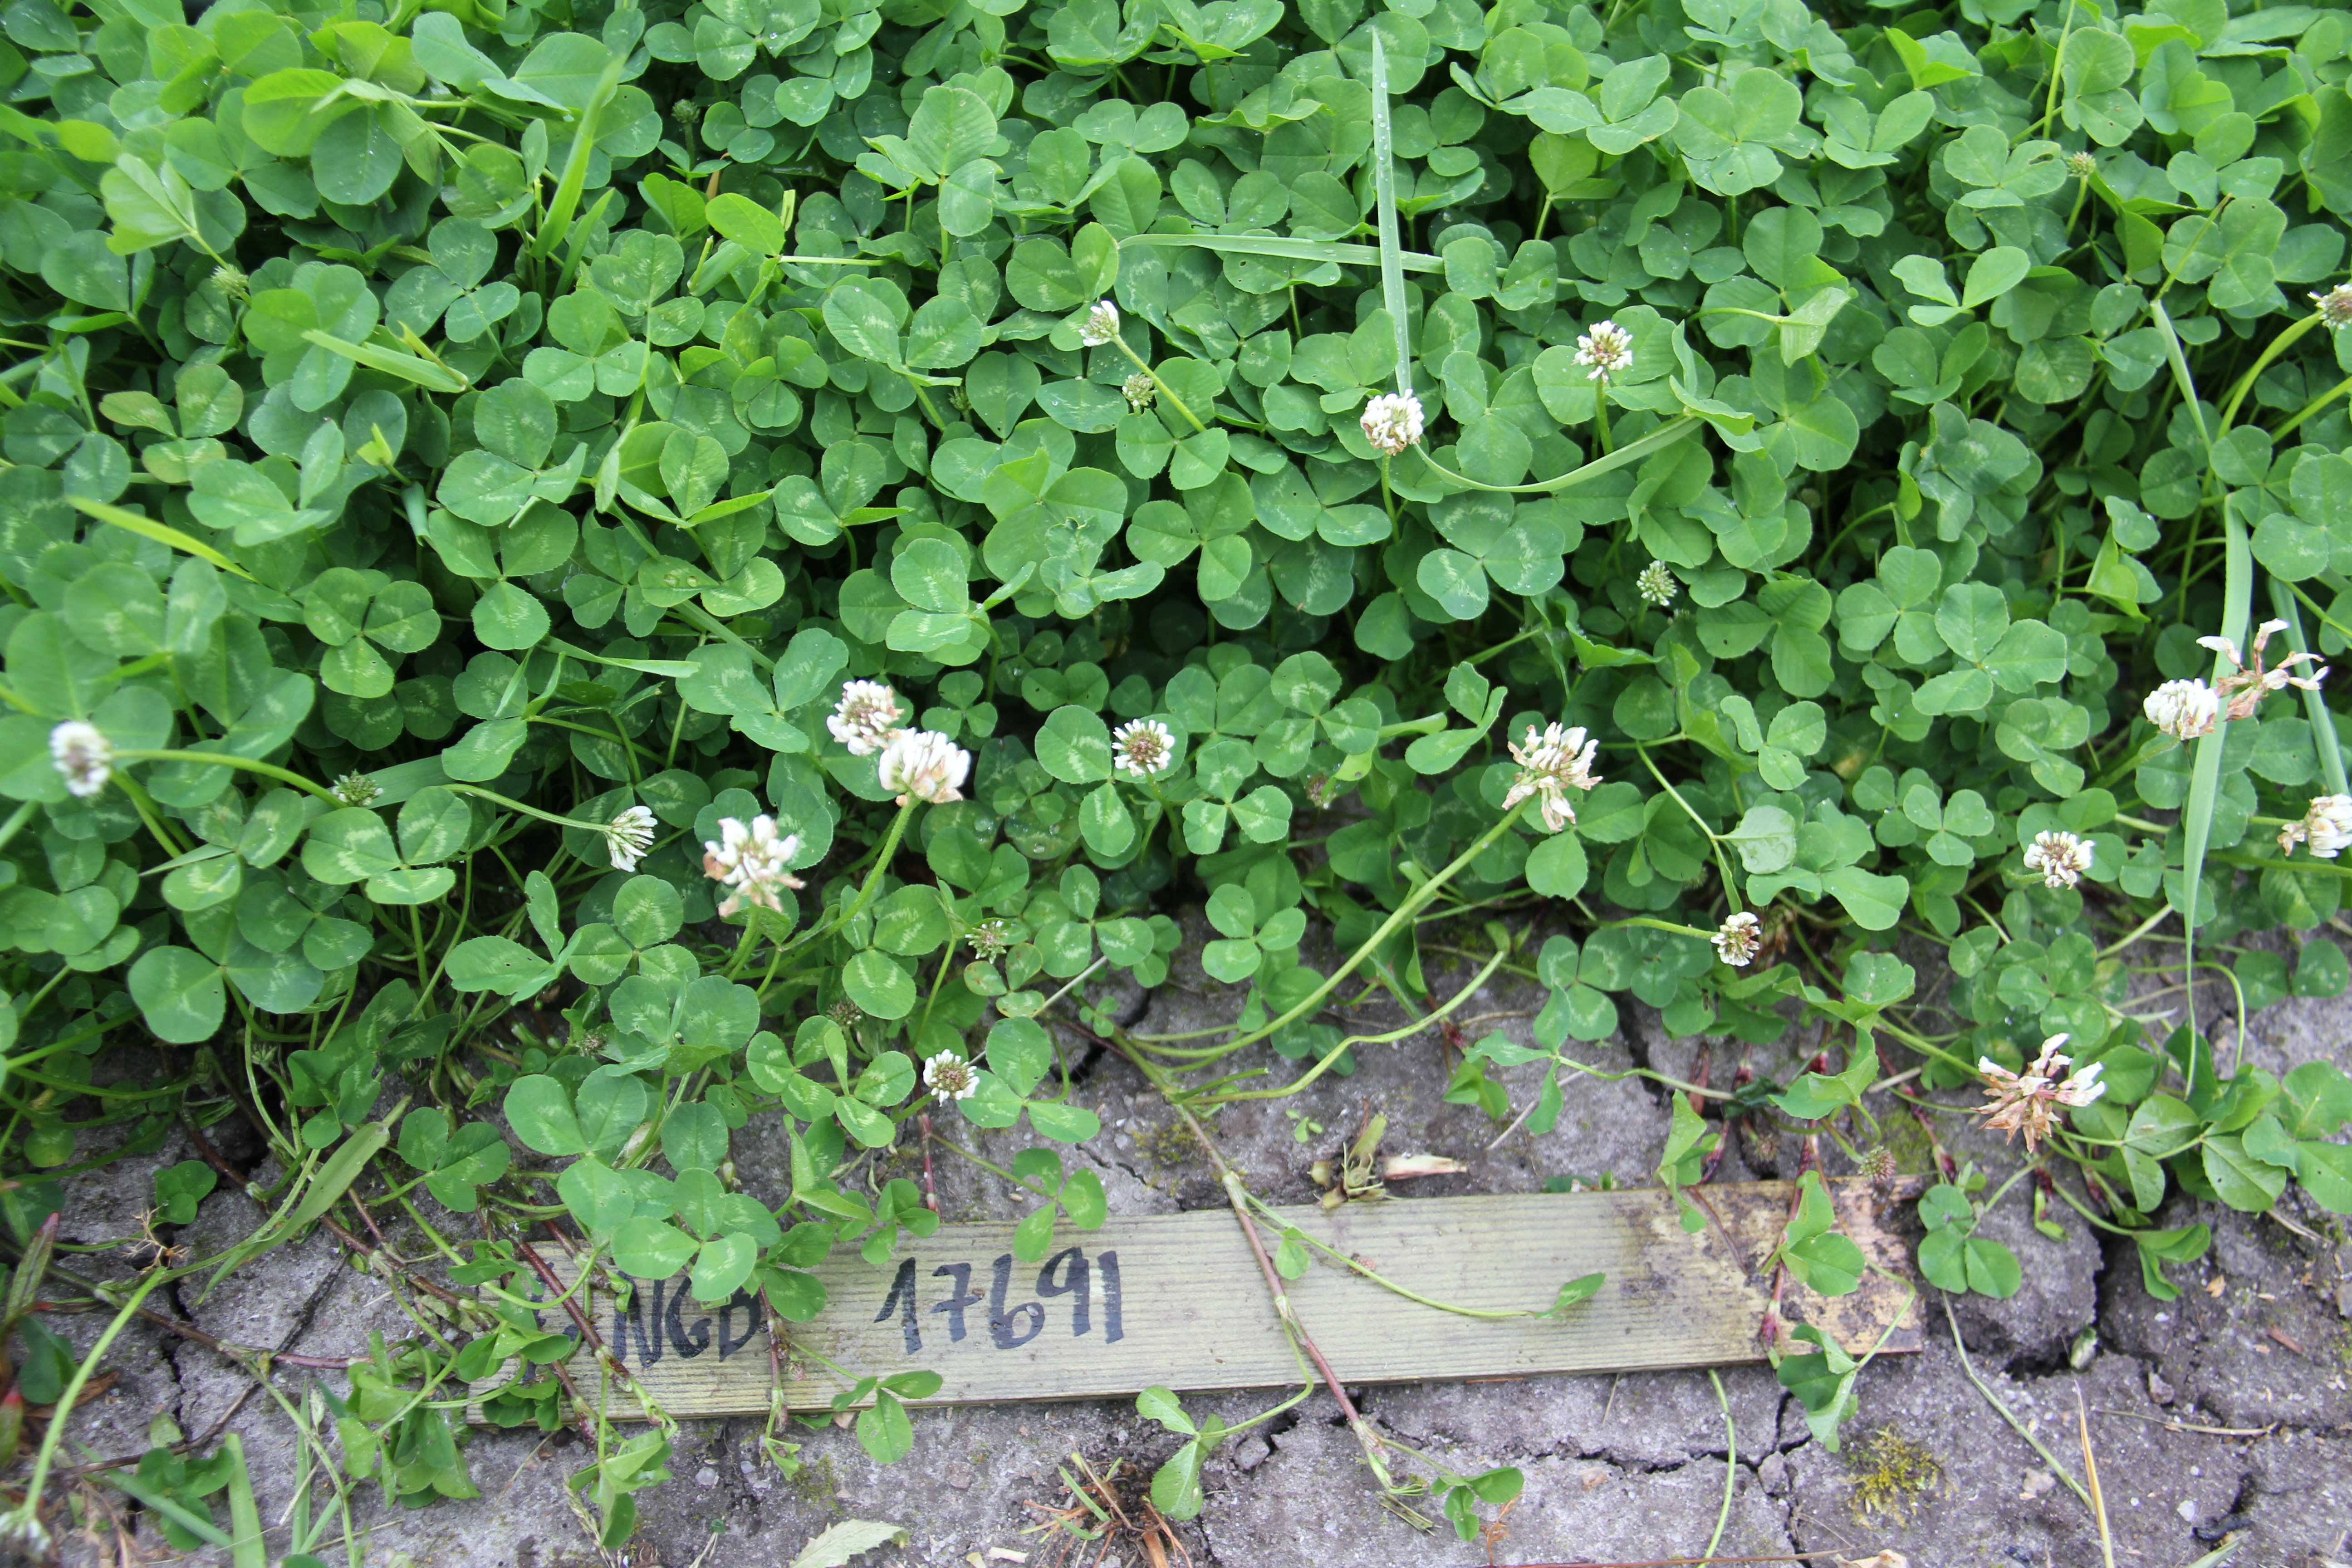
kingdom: Plantae
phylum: Tracheophyta
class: Magnoliopsida
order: Fabales
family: Fabaceae
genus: Trifolium
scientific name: Trifolium repens
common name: White clover
